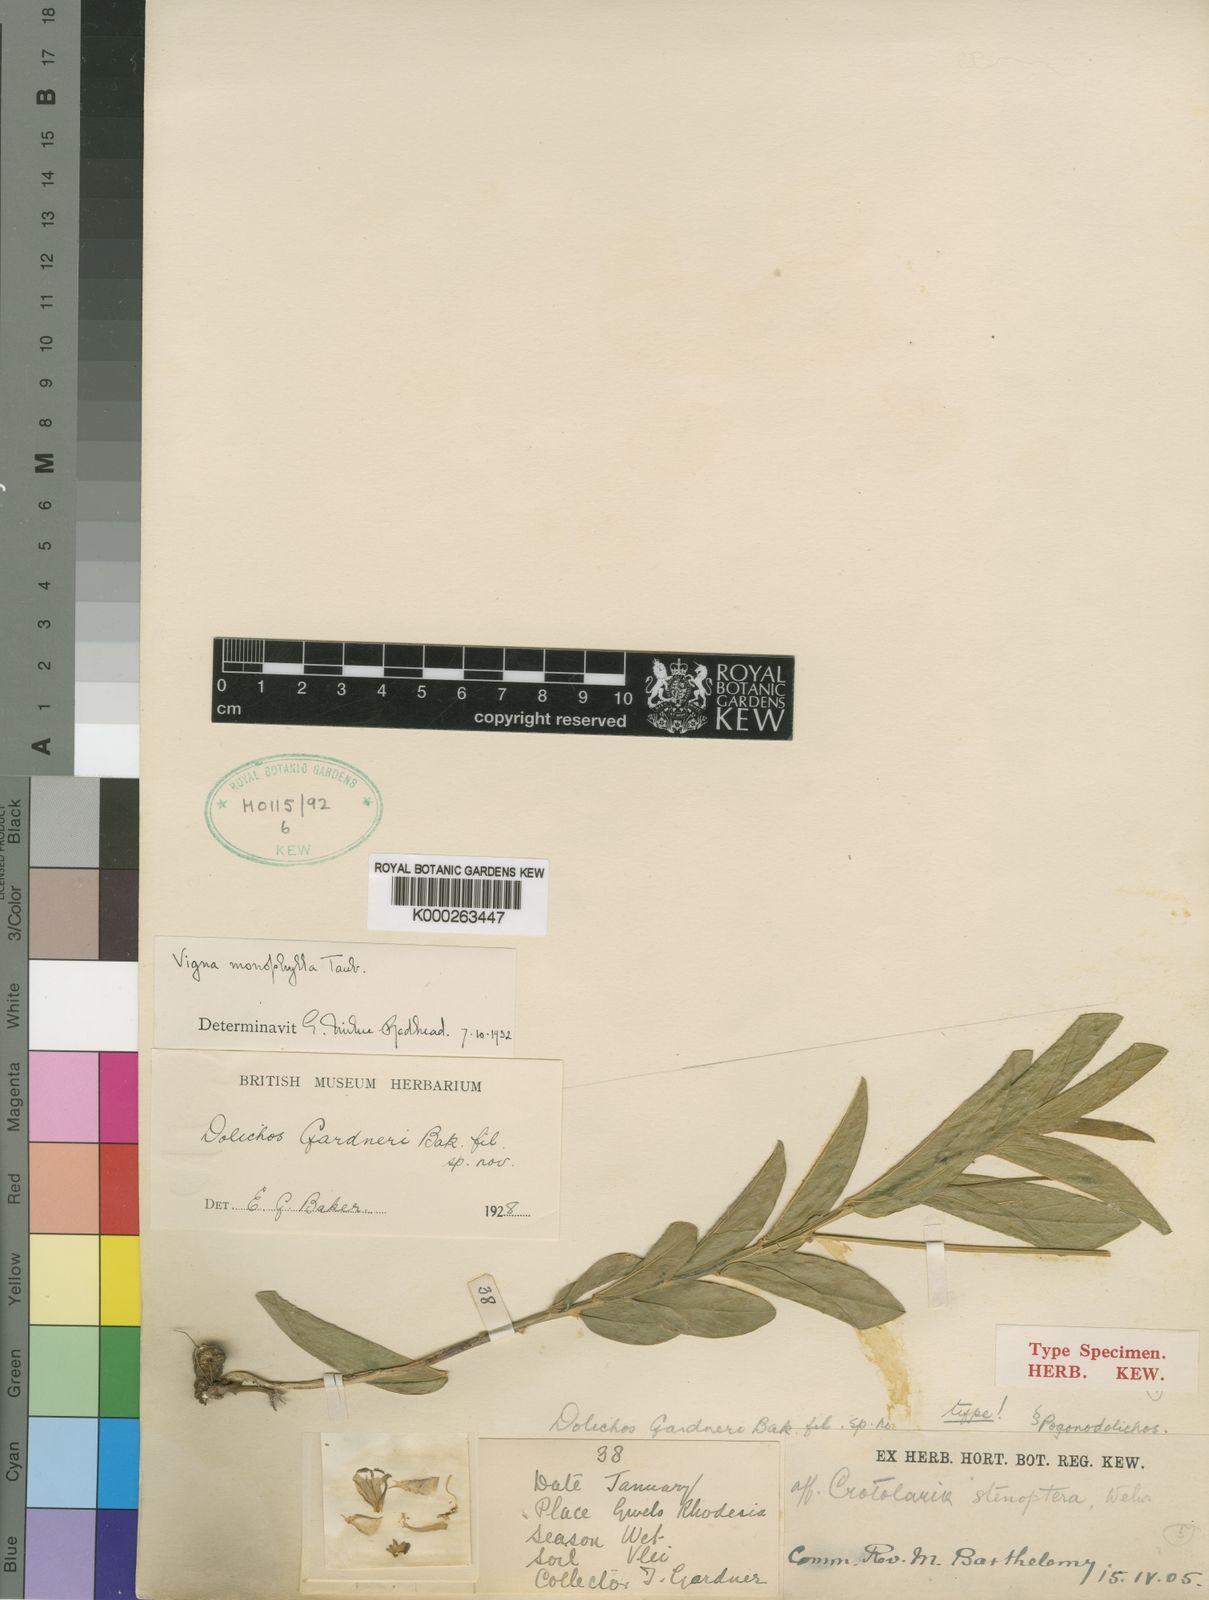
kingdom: Plantae
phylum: Tracheophyta
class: Magnoliopsida
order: Fabales
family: Fabaceae
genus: Vigna
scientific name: Vigna monophylla
